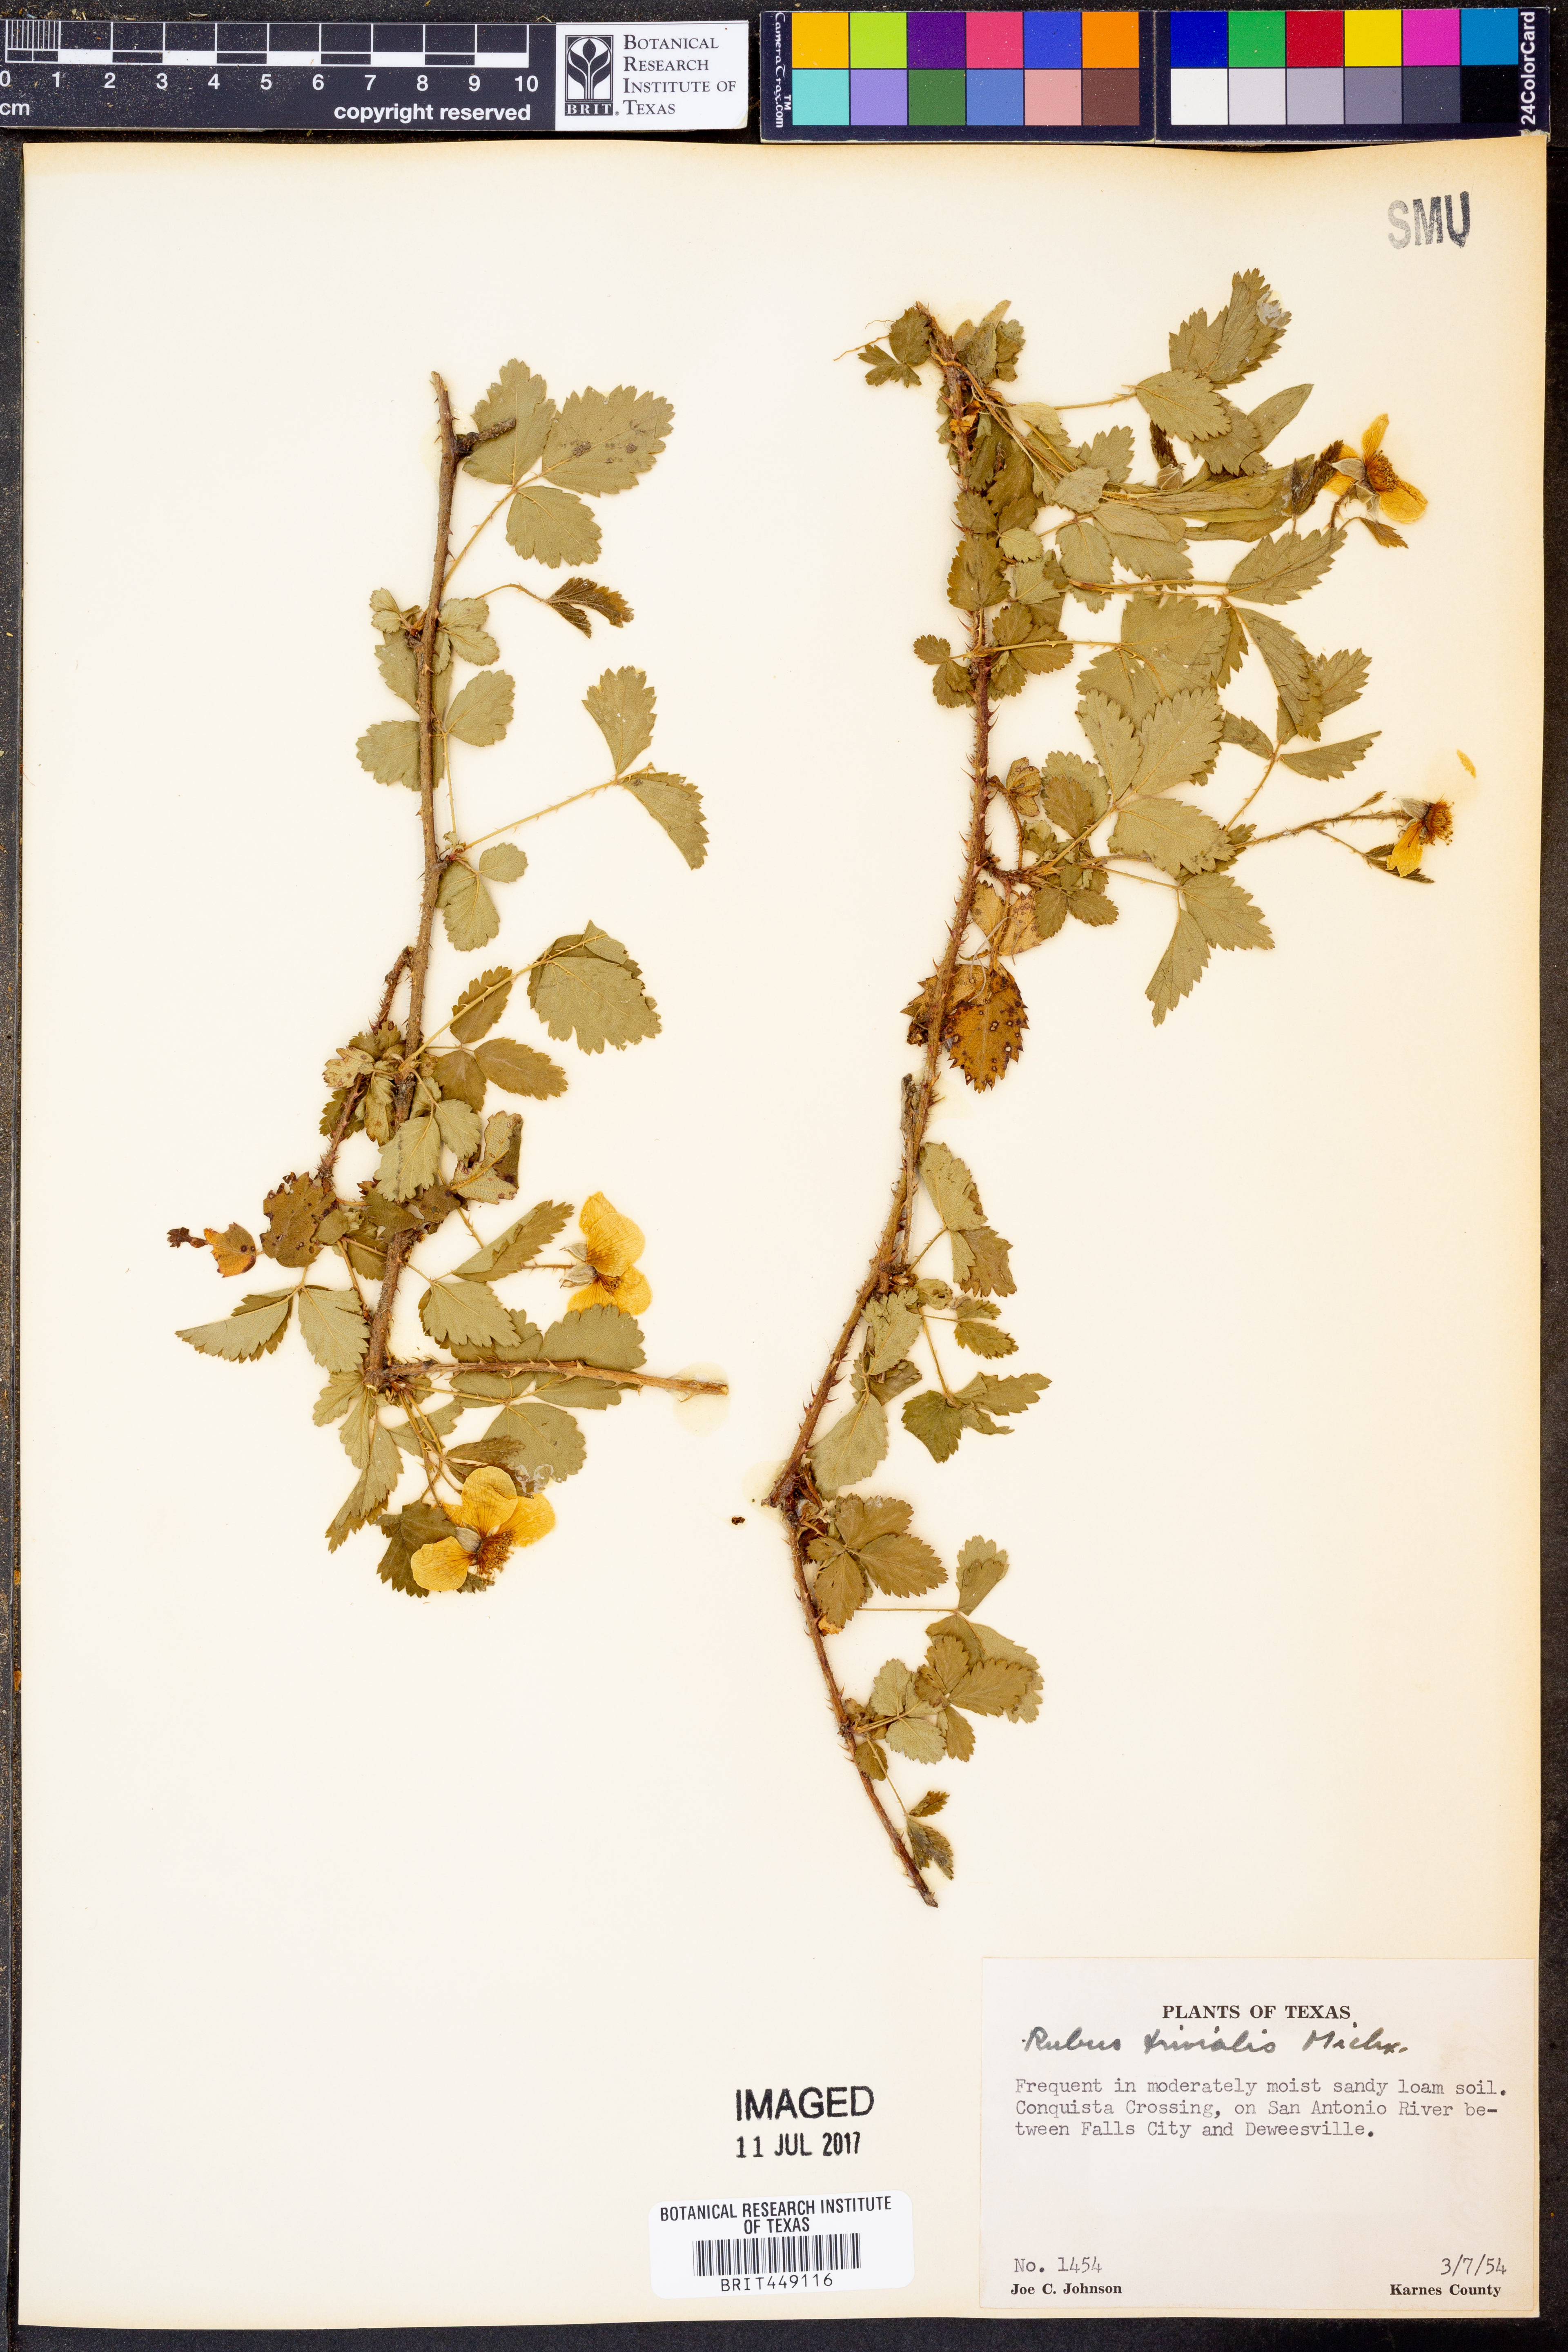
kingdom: Plantae
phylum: Tracheophyta
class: Magnoliopsida
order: Rosales
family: Rosaceae
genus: Rubus
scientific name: Rubus trivialis
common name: Southern dewberry
